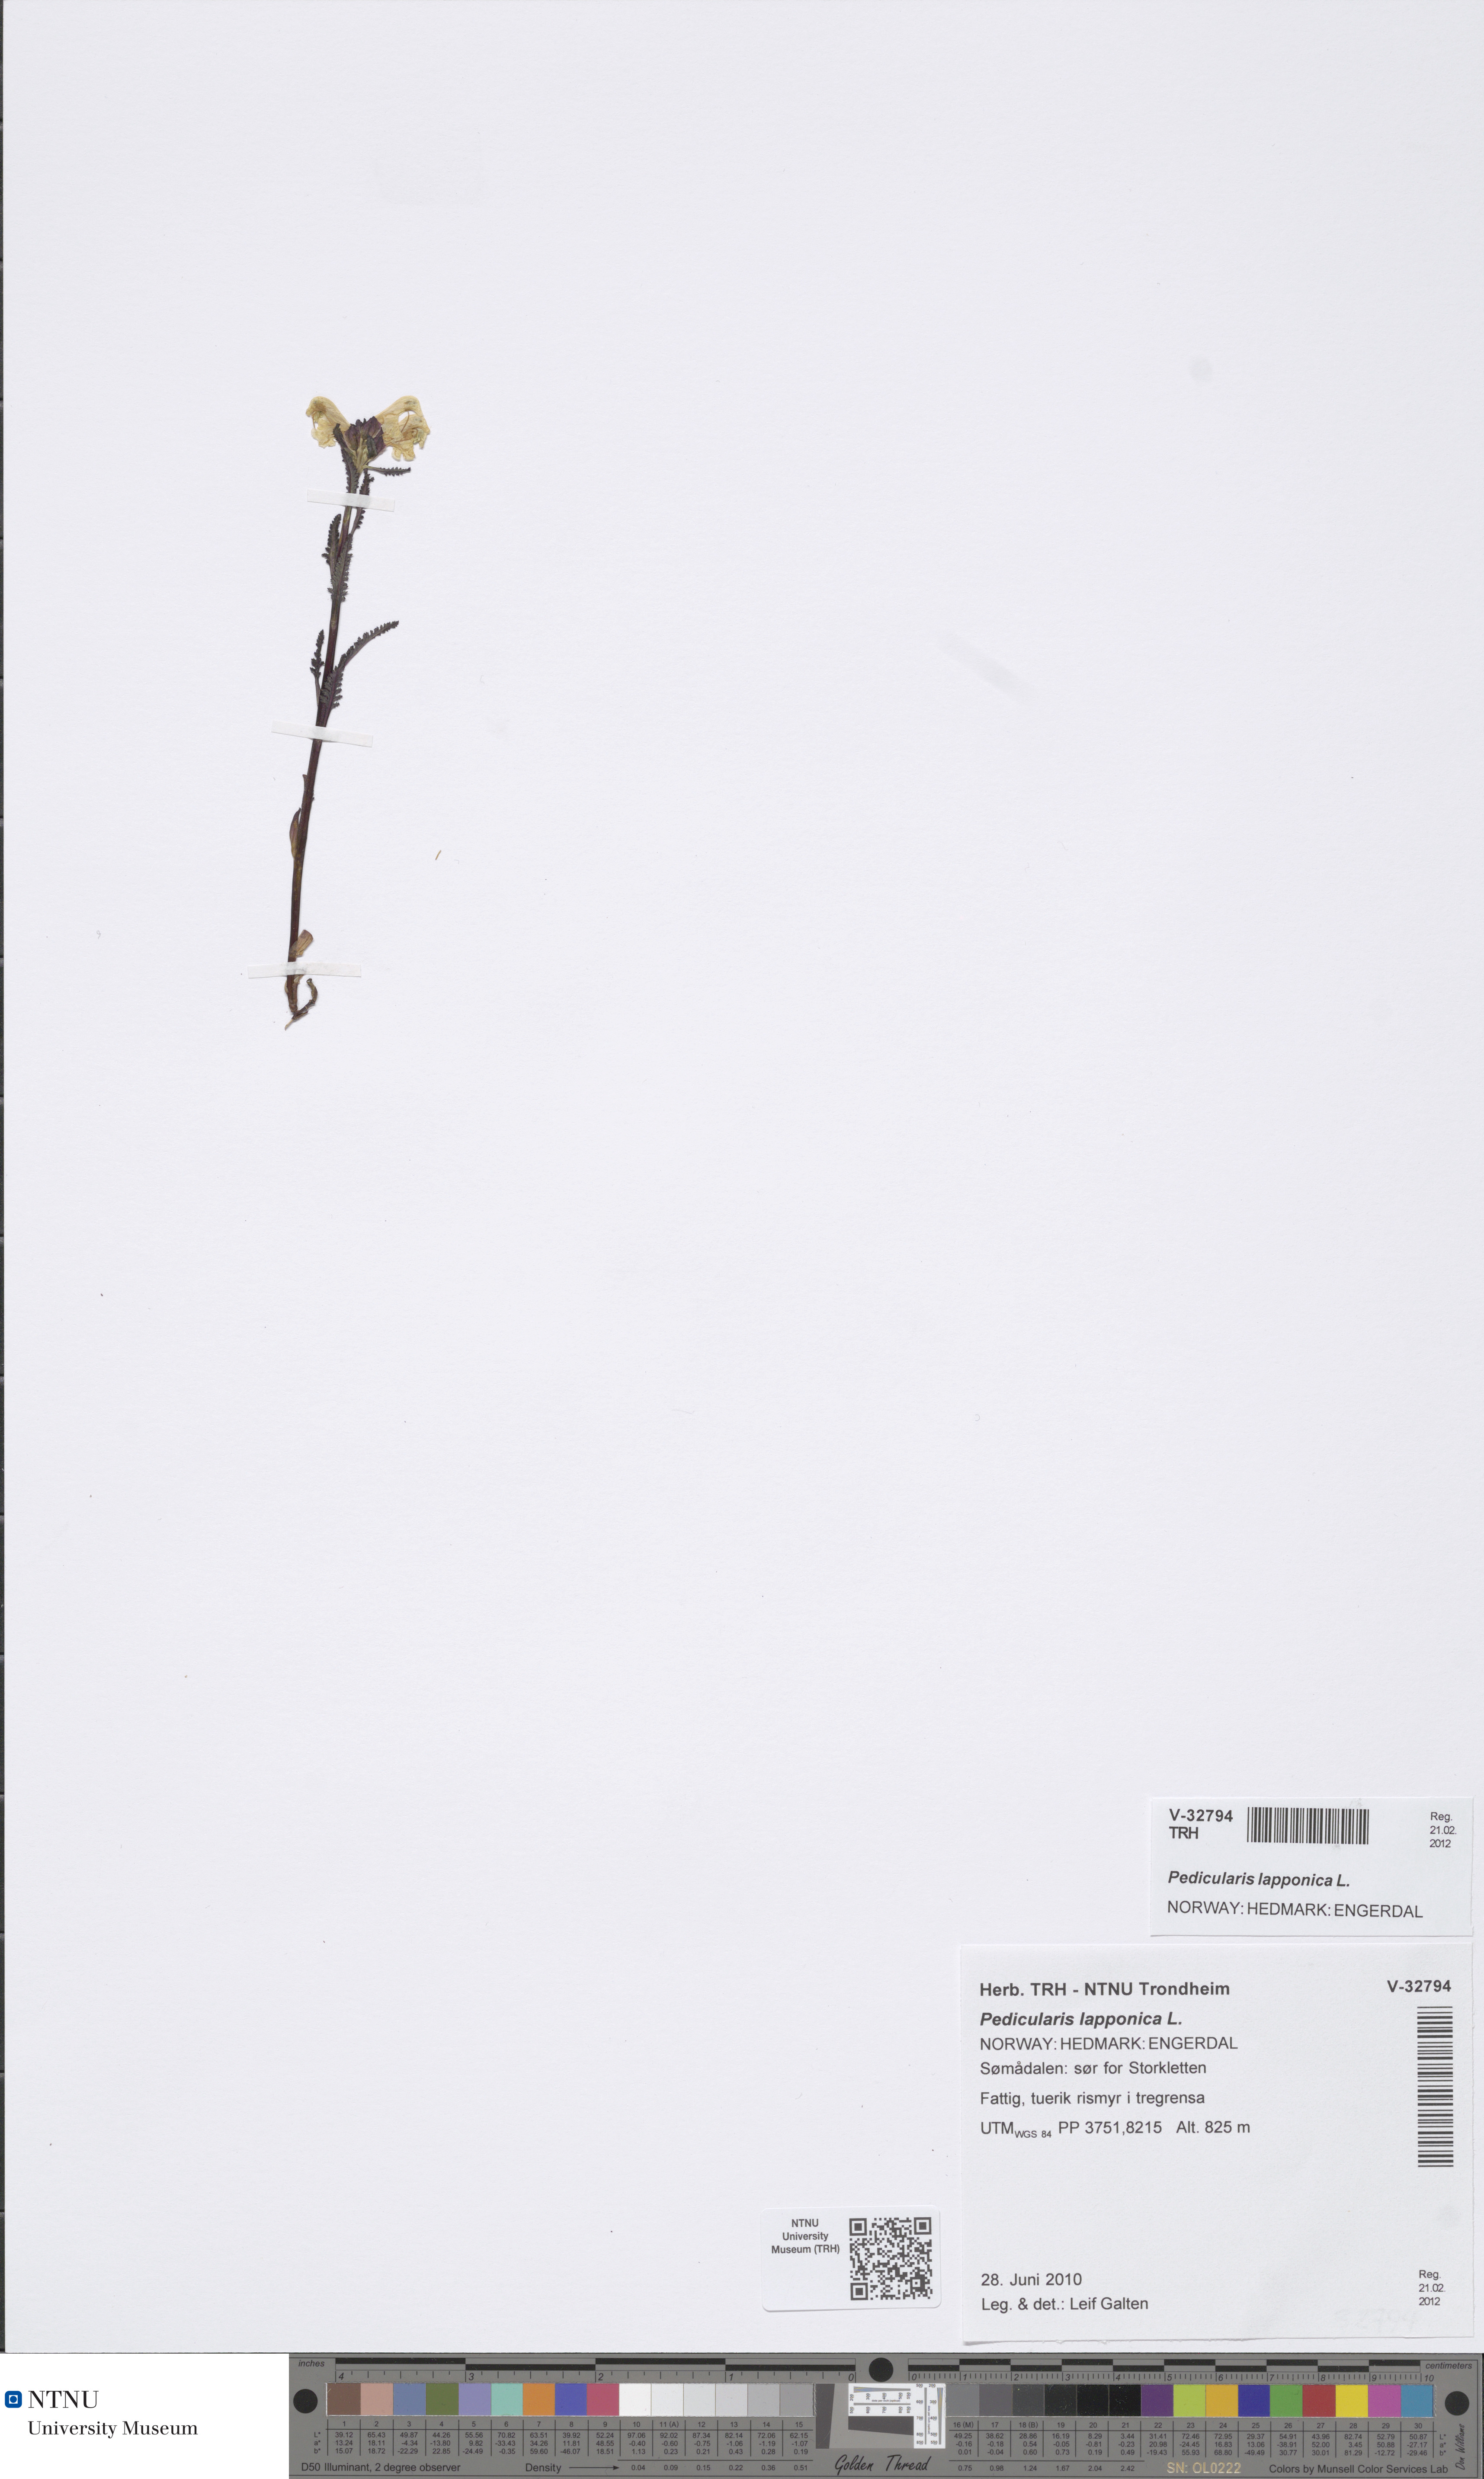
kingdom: Plantae
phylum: Tracheophyta
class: Magnoliopsida
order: Lamiales
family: Orobanchaceae
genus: Pedicularis
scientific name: Pedicularis lapponica
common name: Lapland lousewort
